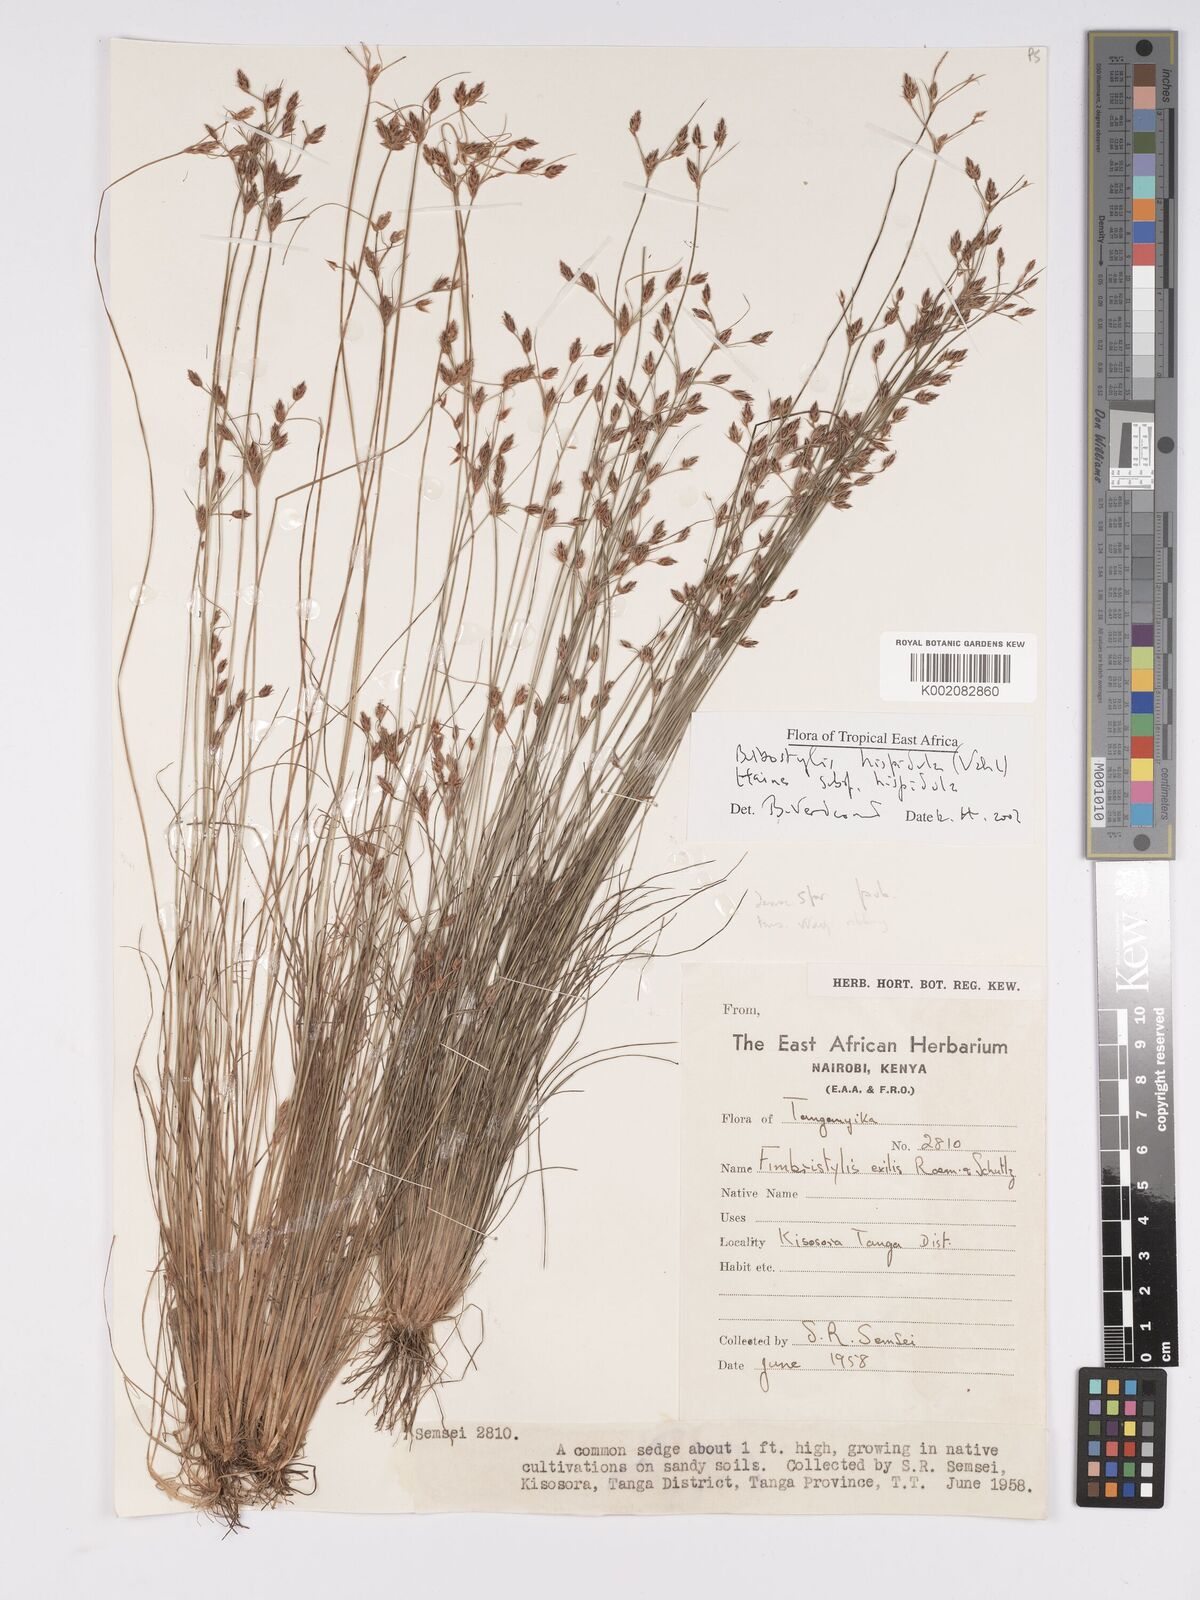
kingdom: Plantae
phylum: Tracheophyta
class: Liliopsida
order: Poales
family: Cyperaceae
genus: Bulbostylis
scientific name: Bulbostylis hispidula
